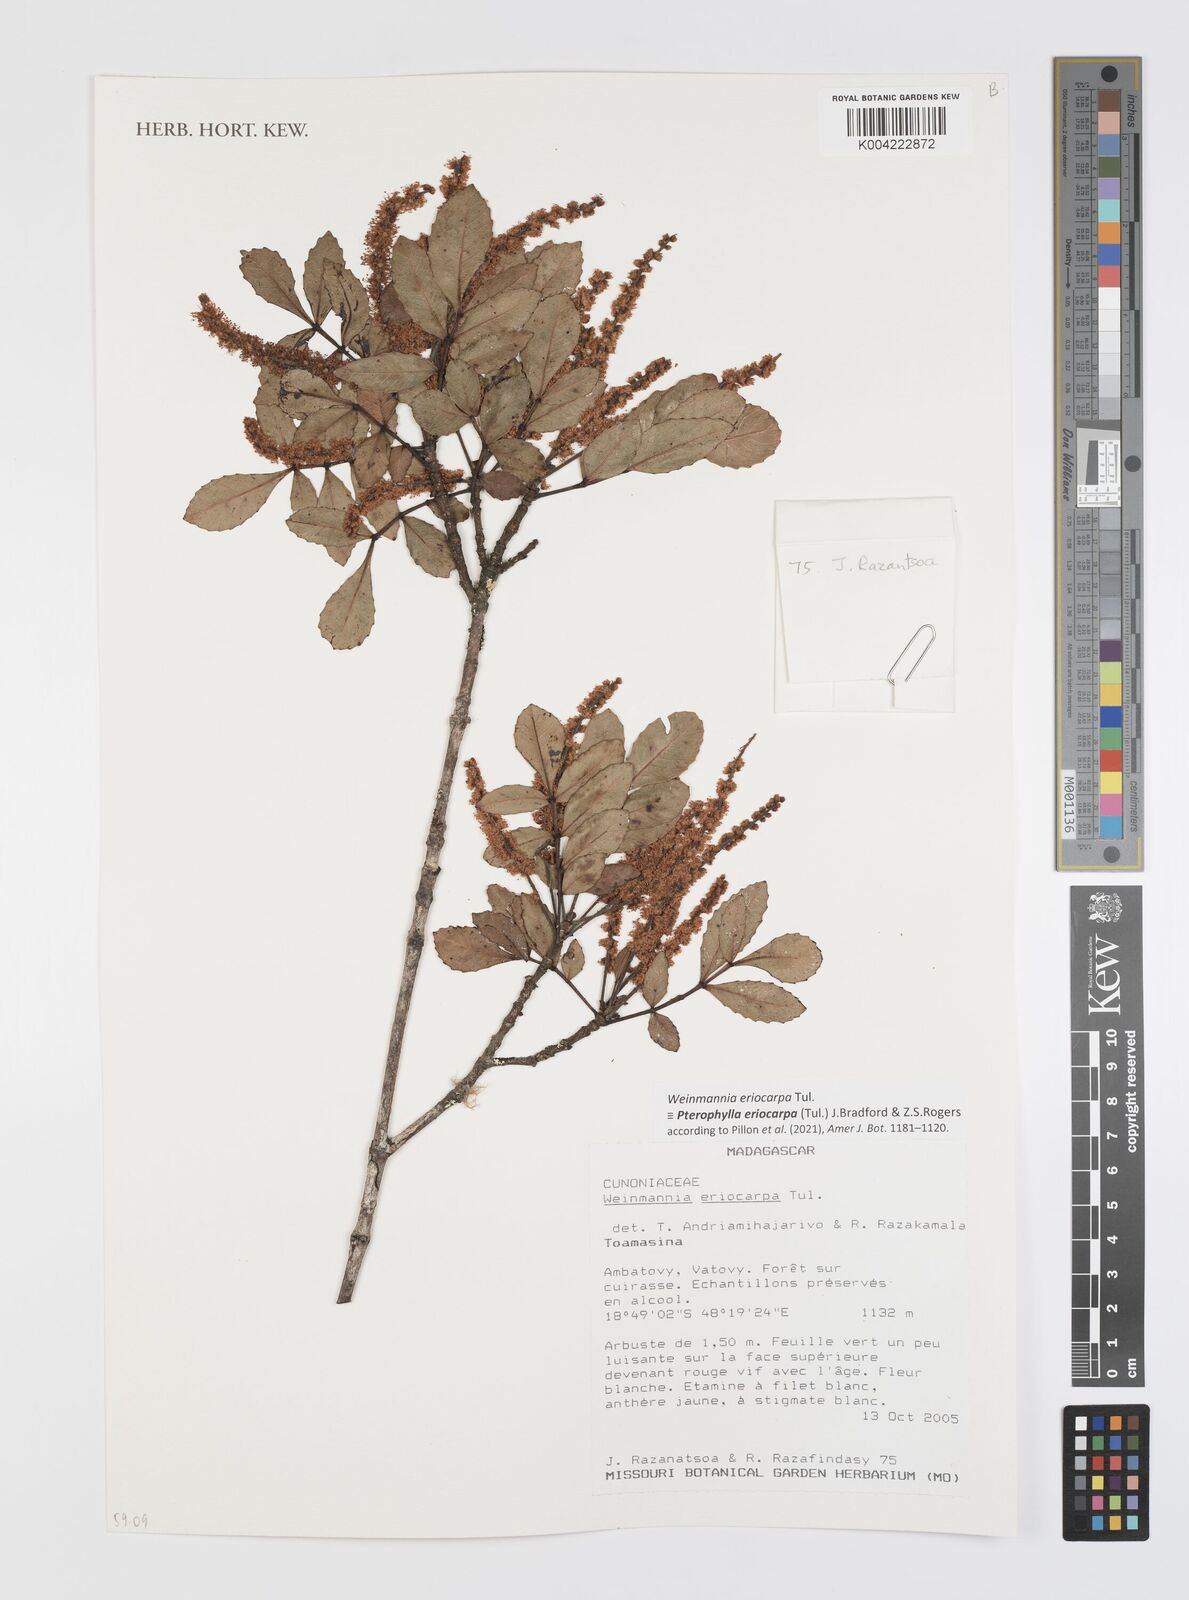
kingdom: Plantae
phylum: Tracheophyta
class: Magnoliopsida
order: Oxalidales
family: Cunoniaceae
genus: Pterophylla
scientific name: Pterophylla eriocarpa
